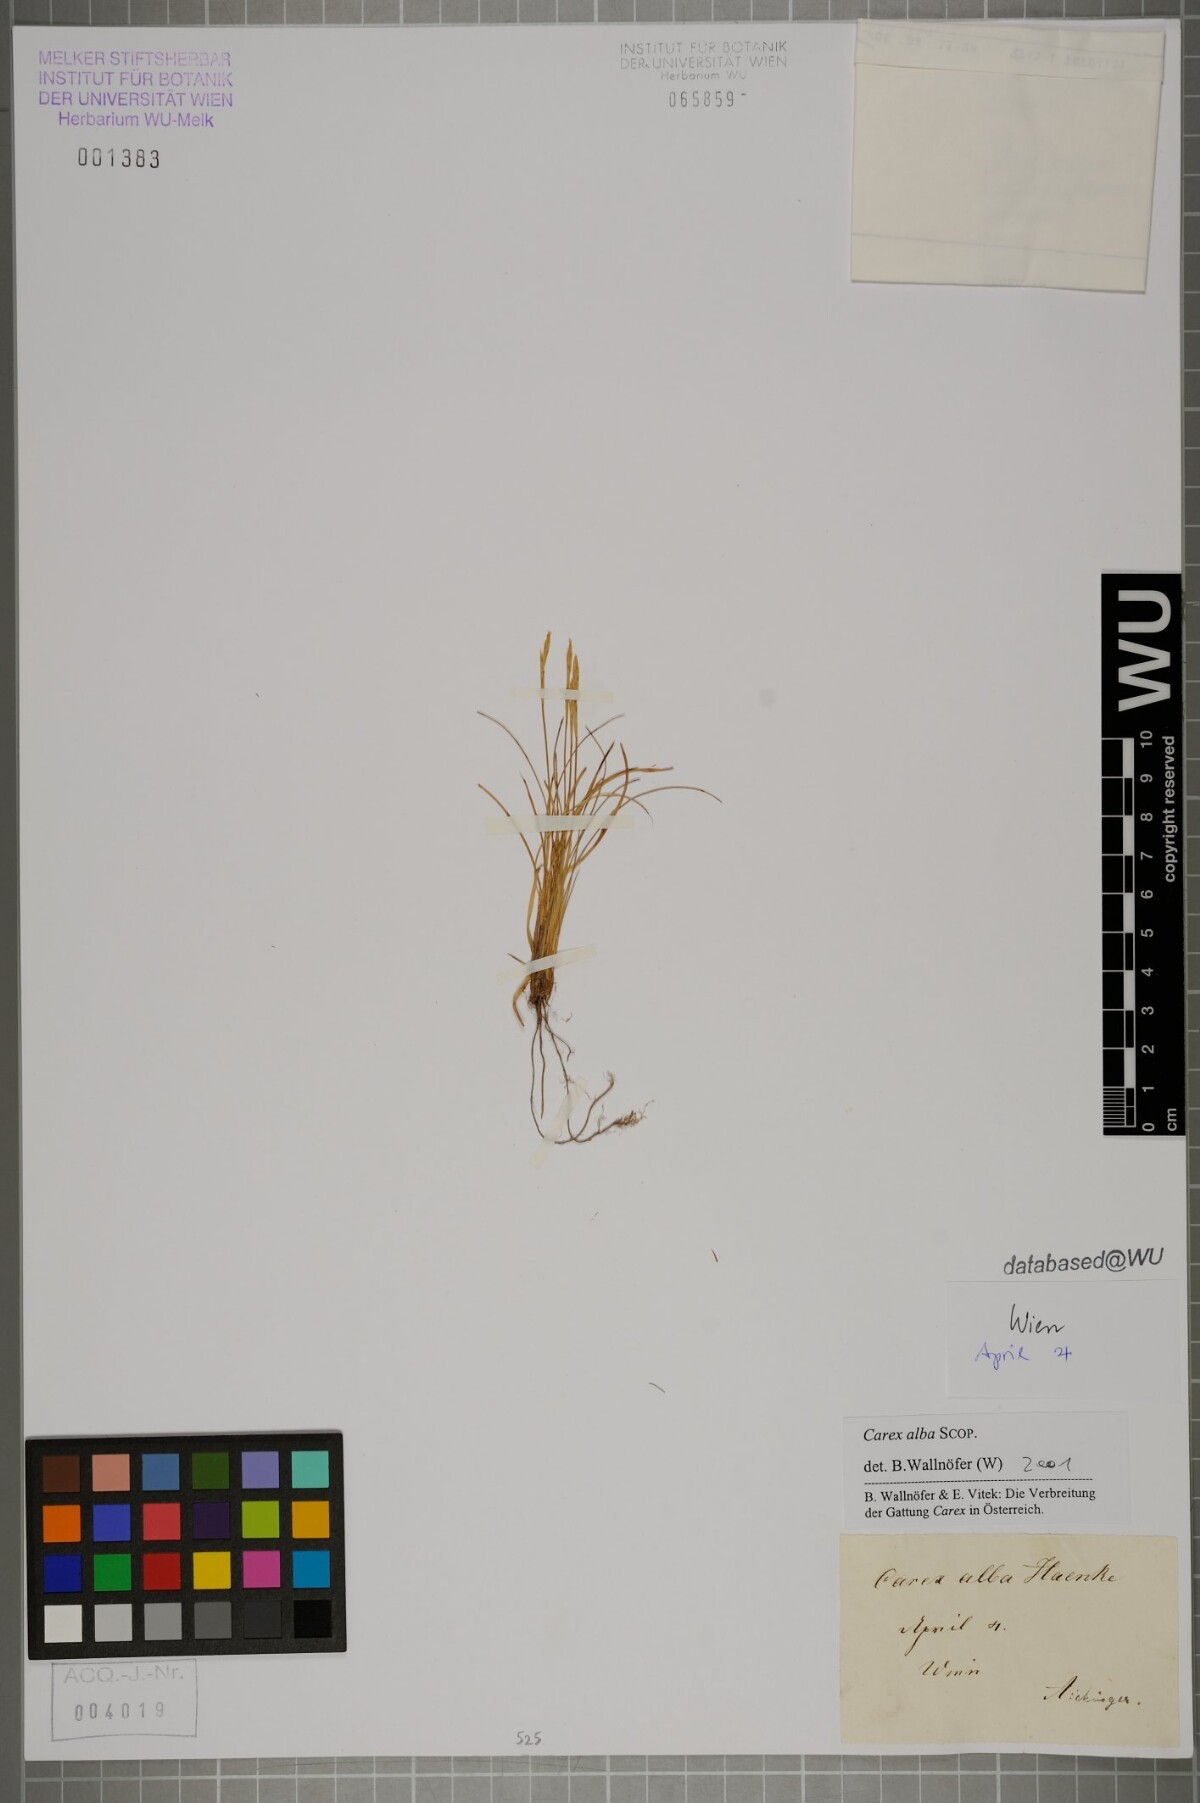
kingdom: Plantae
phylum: Tracheophyta
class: Liliopsida
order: Poales
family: Cyperaceae
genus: Carex
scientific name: Carex alba
